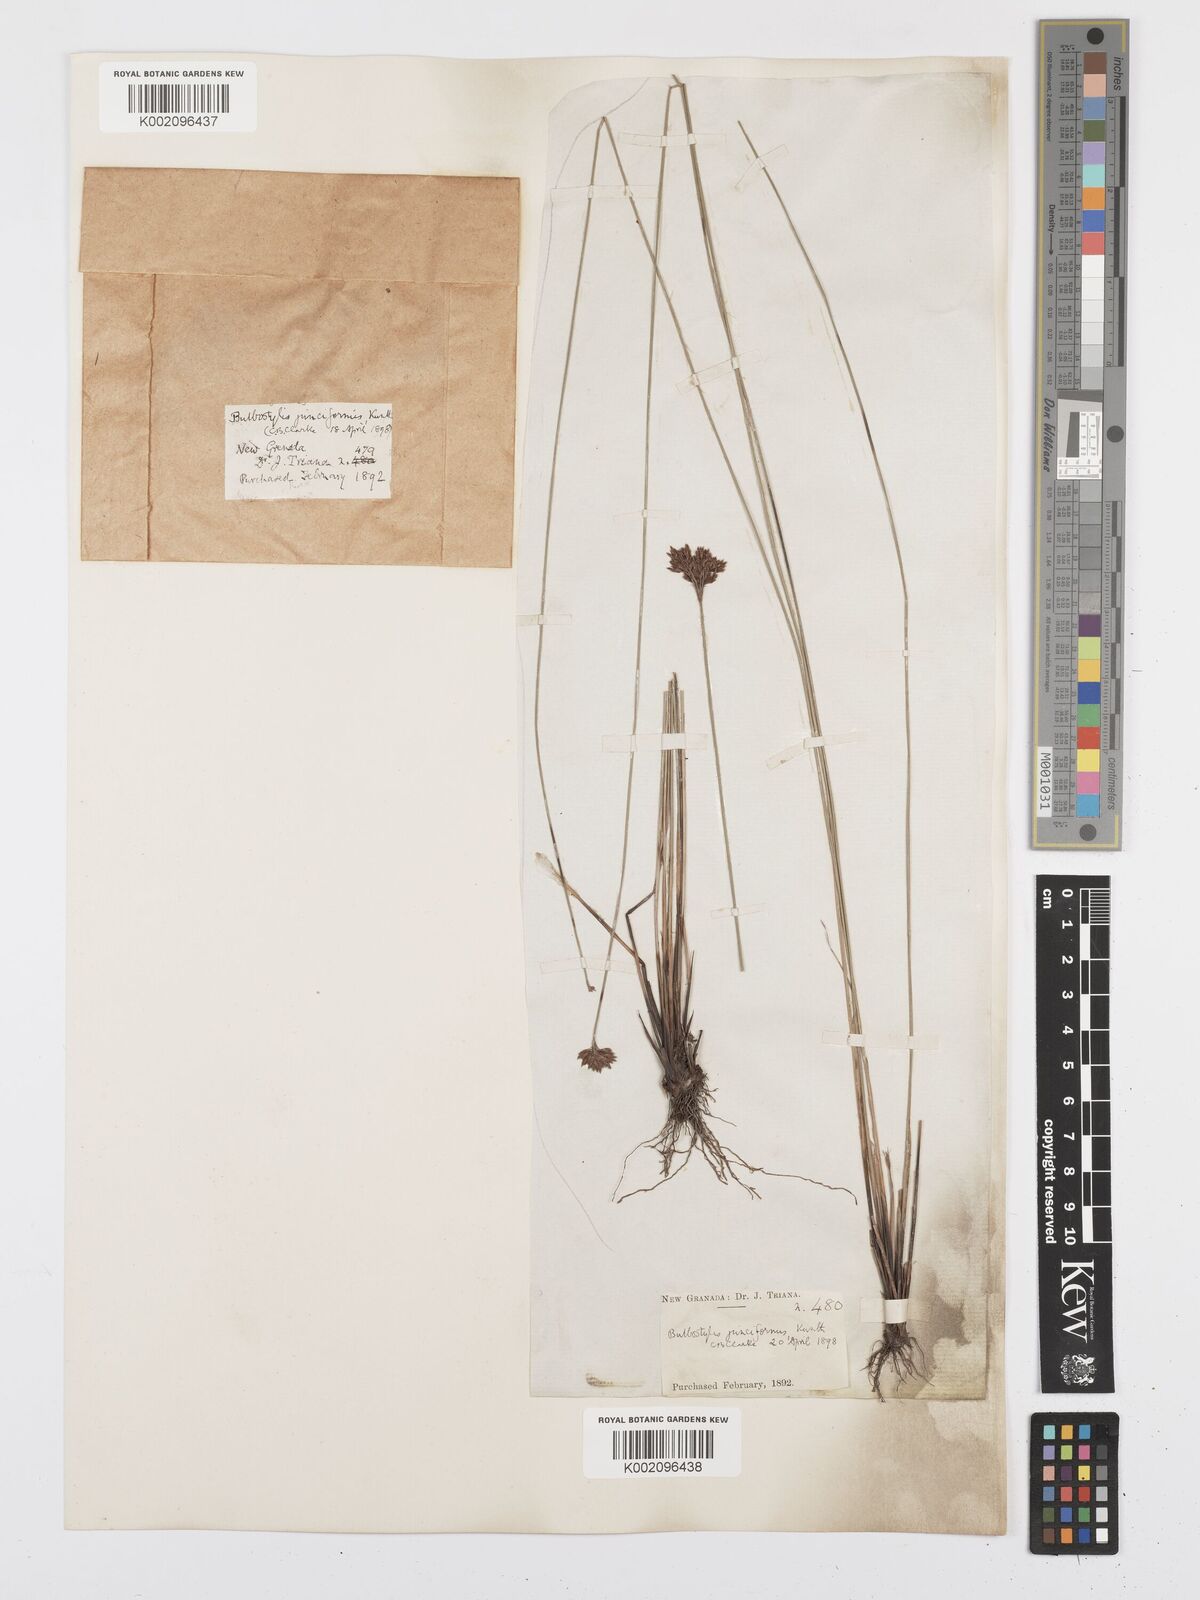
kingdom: Plantae
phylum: Tracheophyta
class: Liliopsida
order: Poales
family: Cyperaceae
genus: Bulbostylis
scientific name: Bulbostylis junciformis
